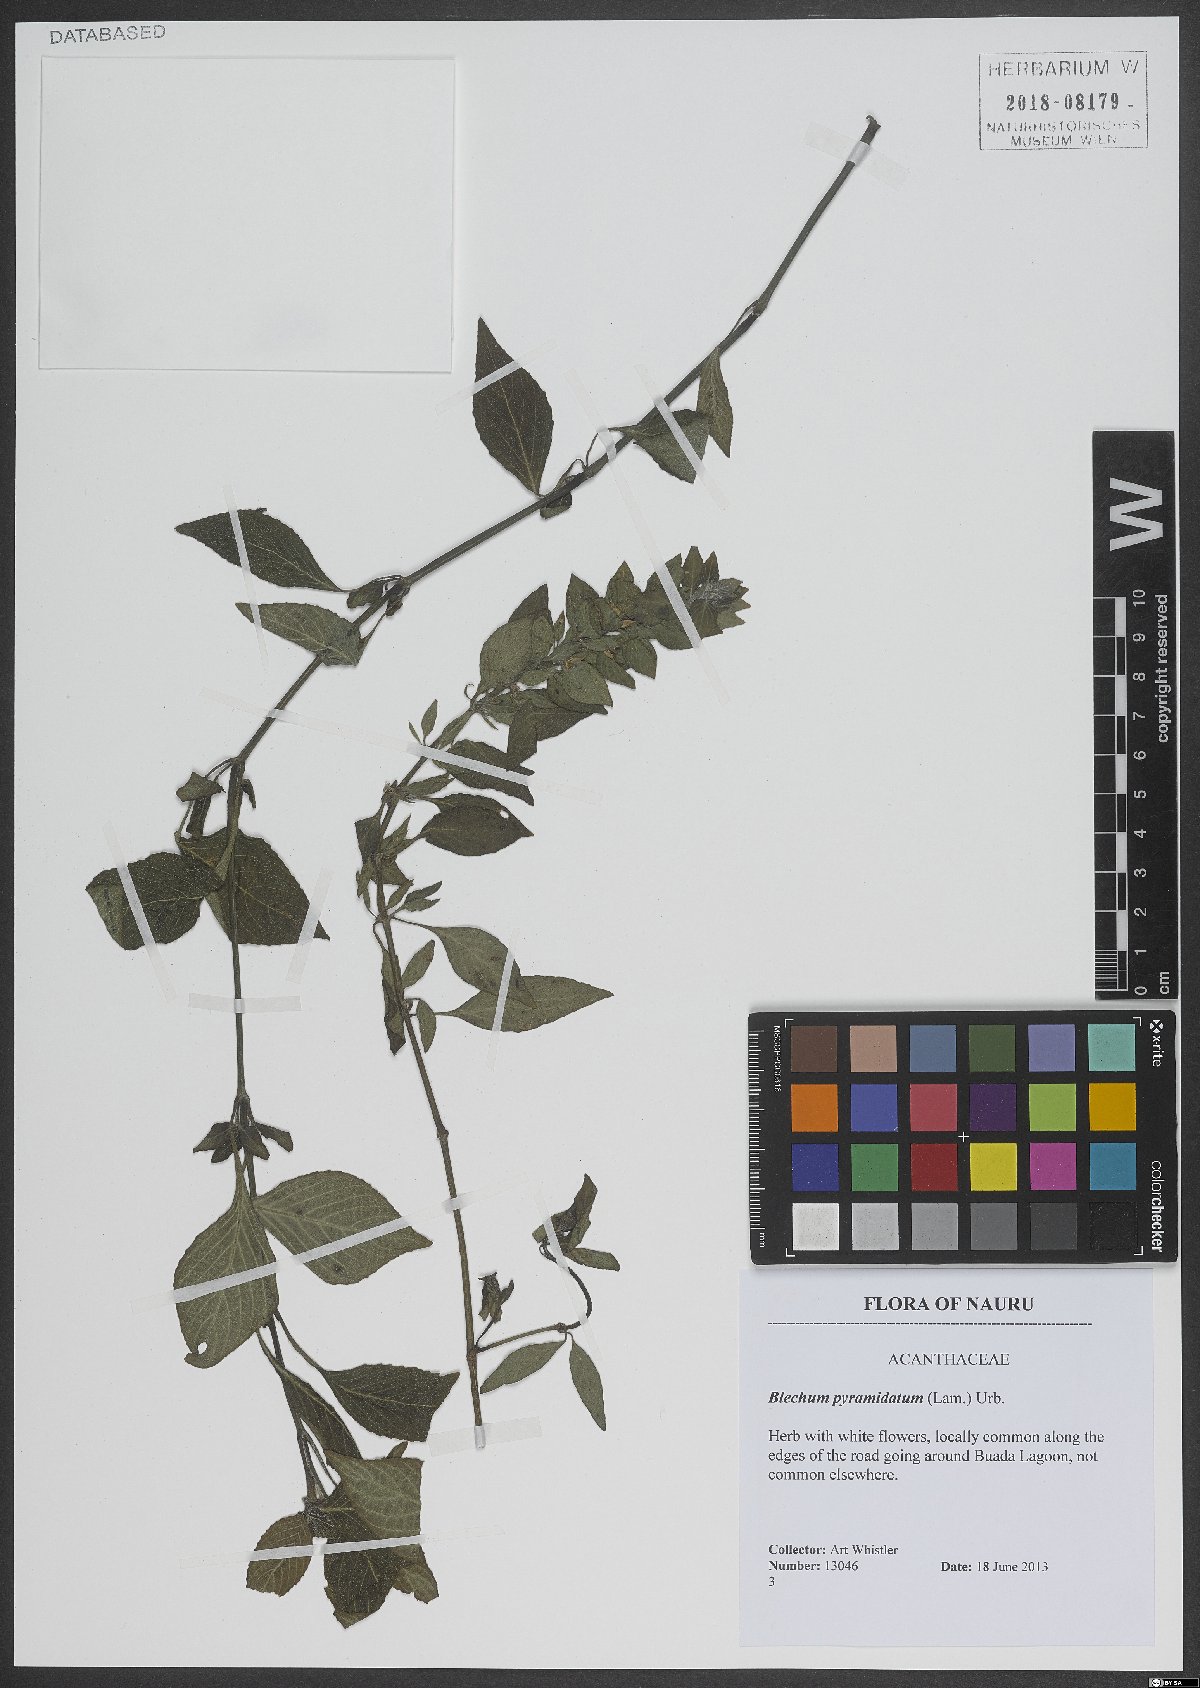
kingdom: Plantae
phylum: Tracheophyta
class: Magnoliopsida
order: Lamiales
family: Acanthaceae
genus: Ruellia
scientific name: Ruellia blechum
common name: Browne's blechum
